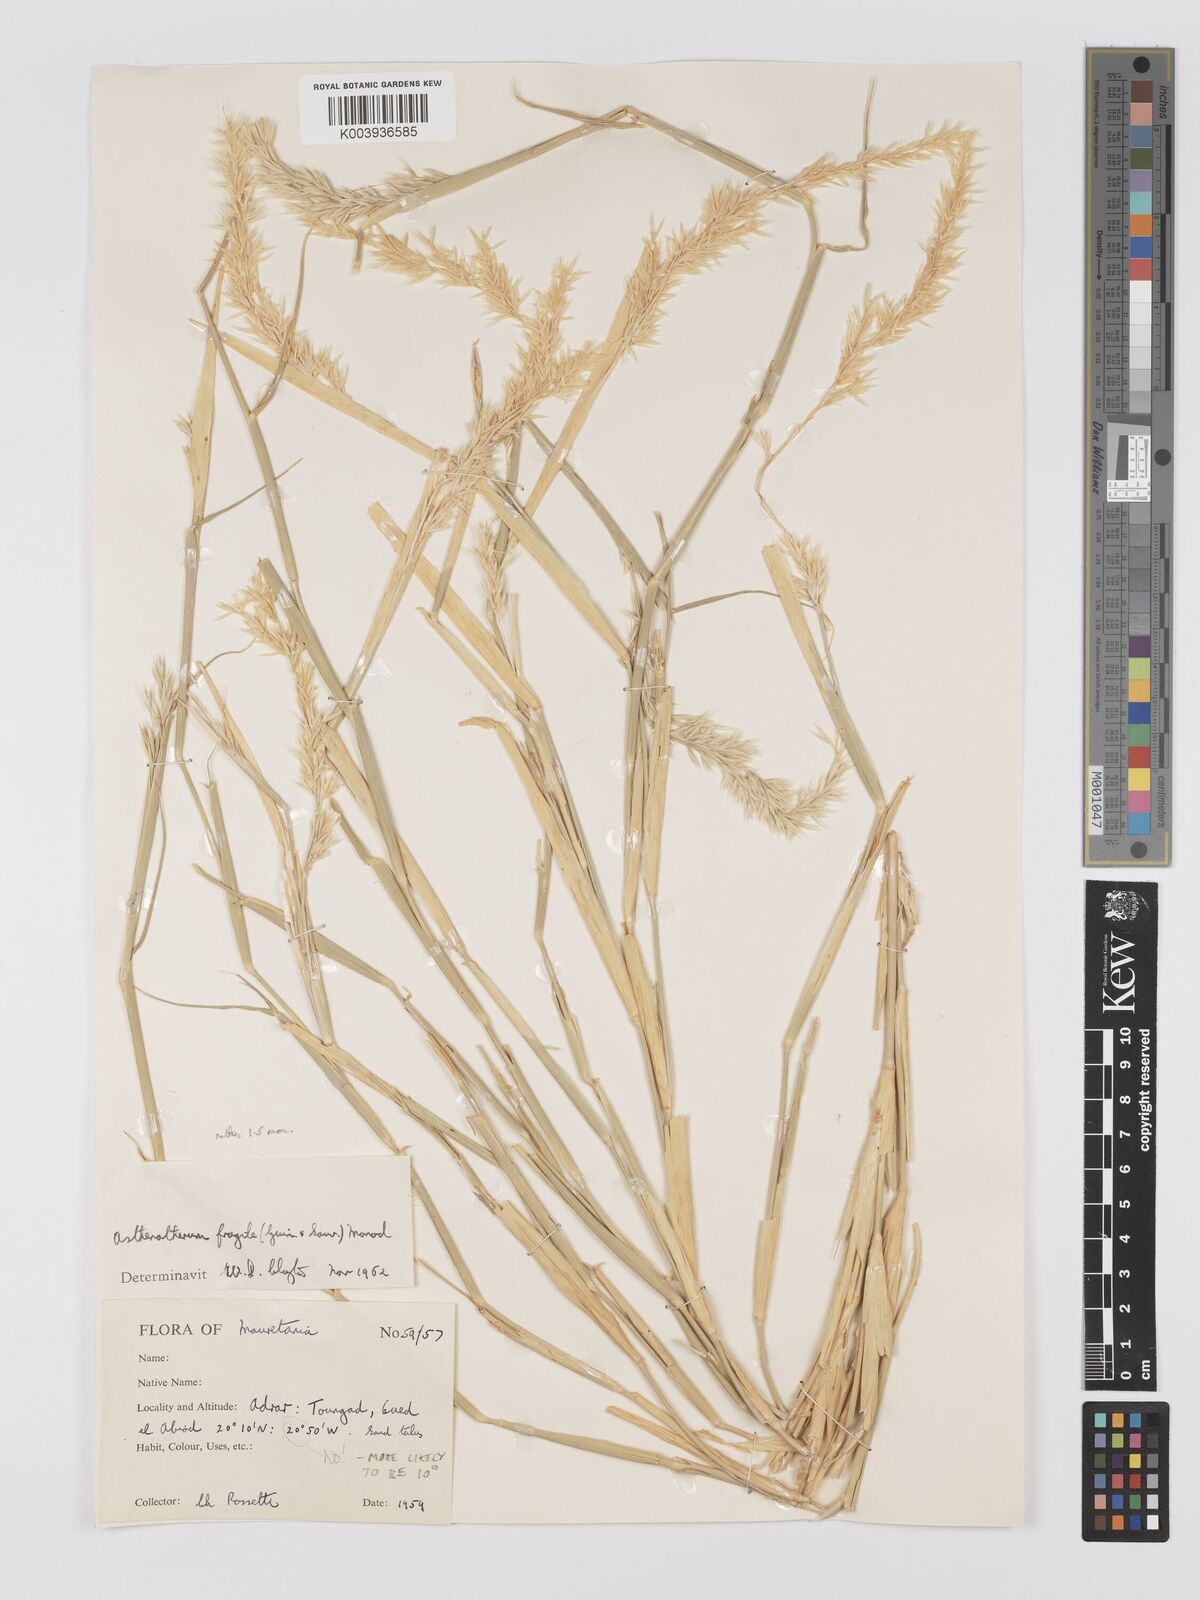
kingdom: Plantae
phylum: Tracheophyta
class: Liliopsida
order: Poales
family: Poaceae
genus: Centropodia
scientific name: Centropodia fragilis
